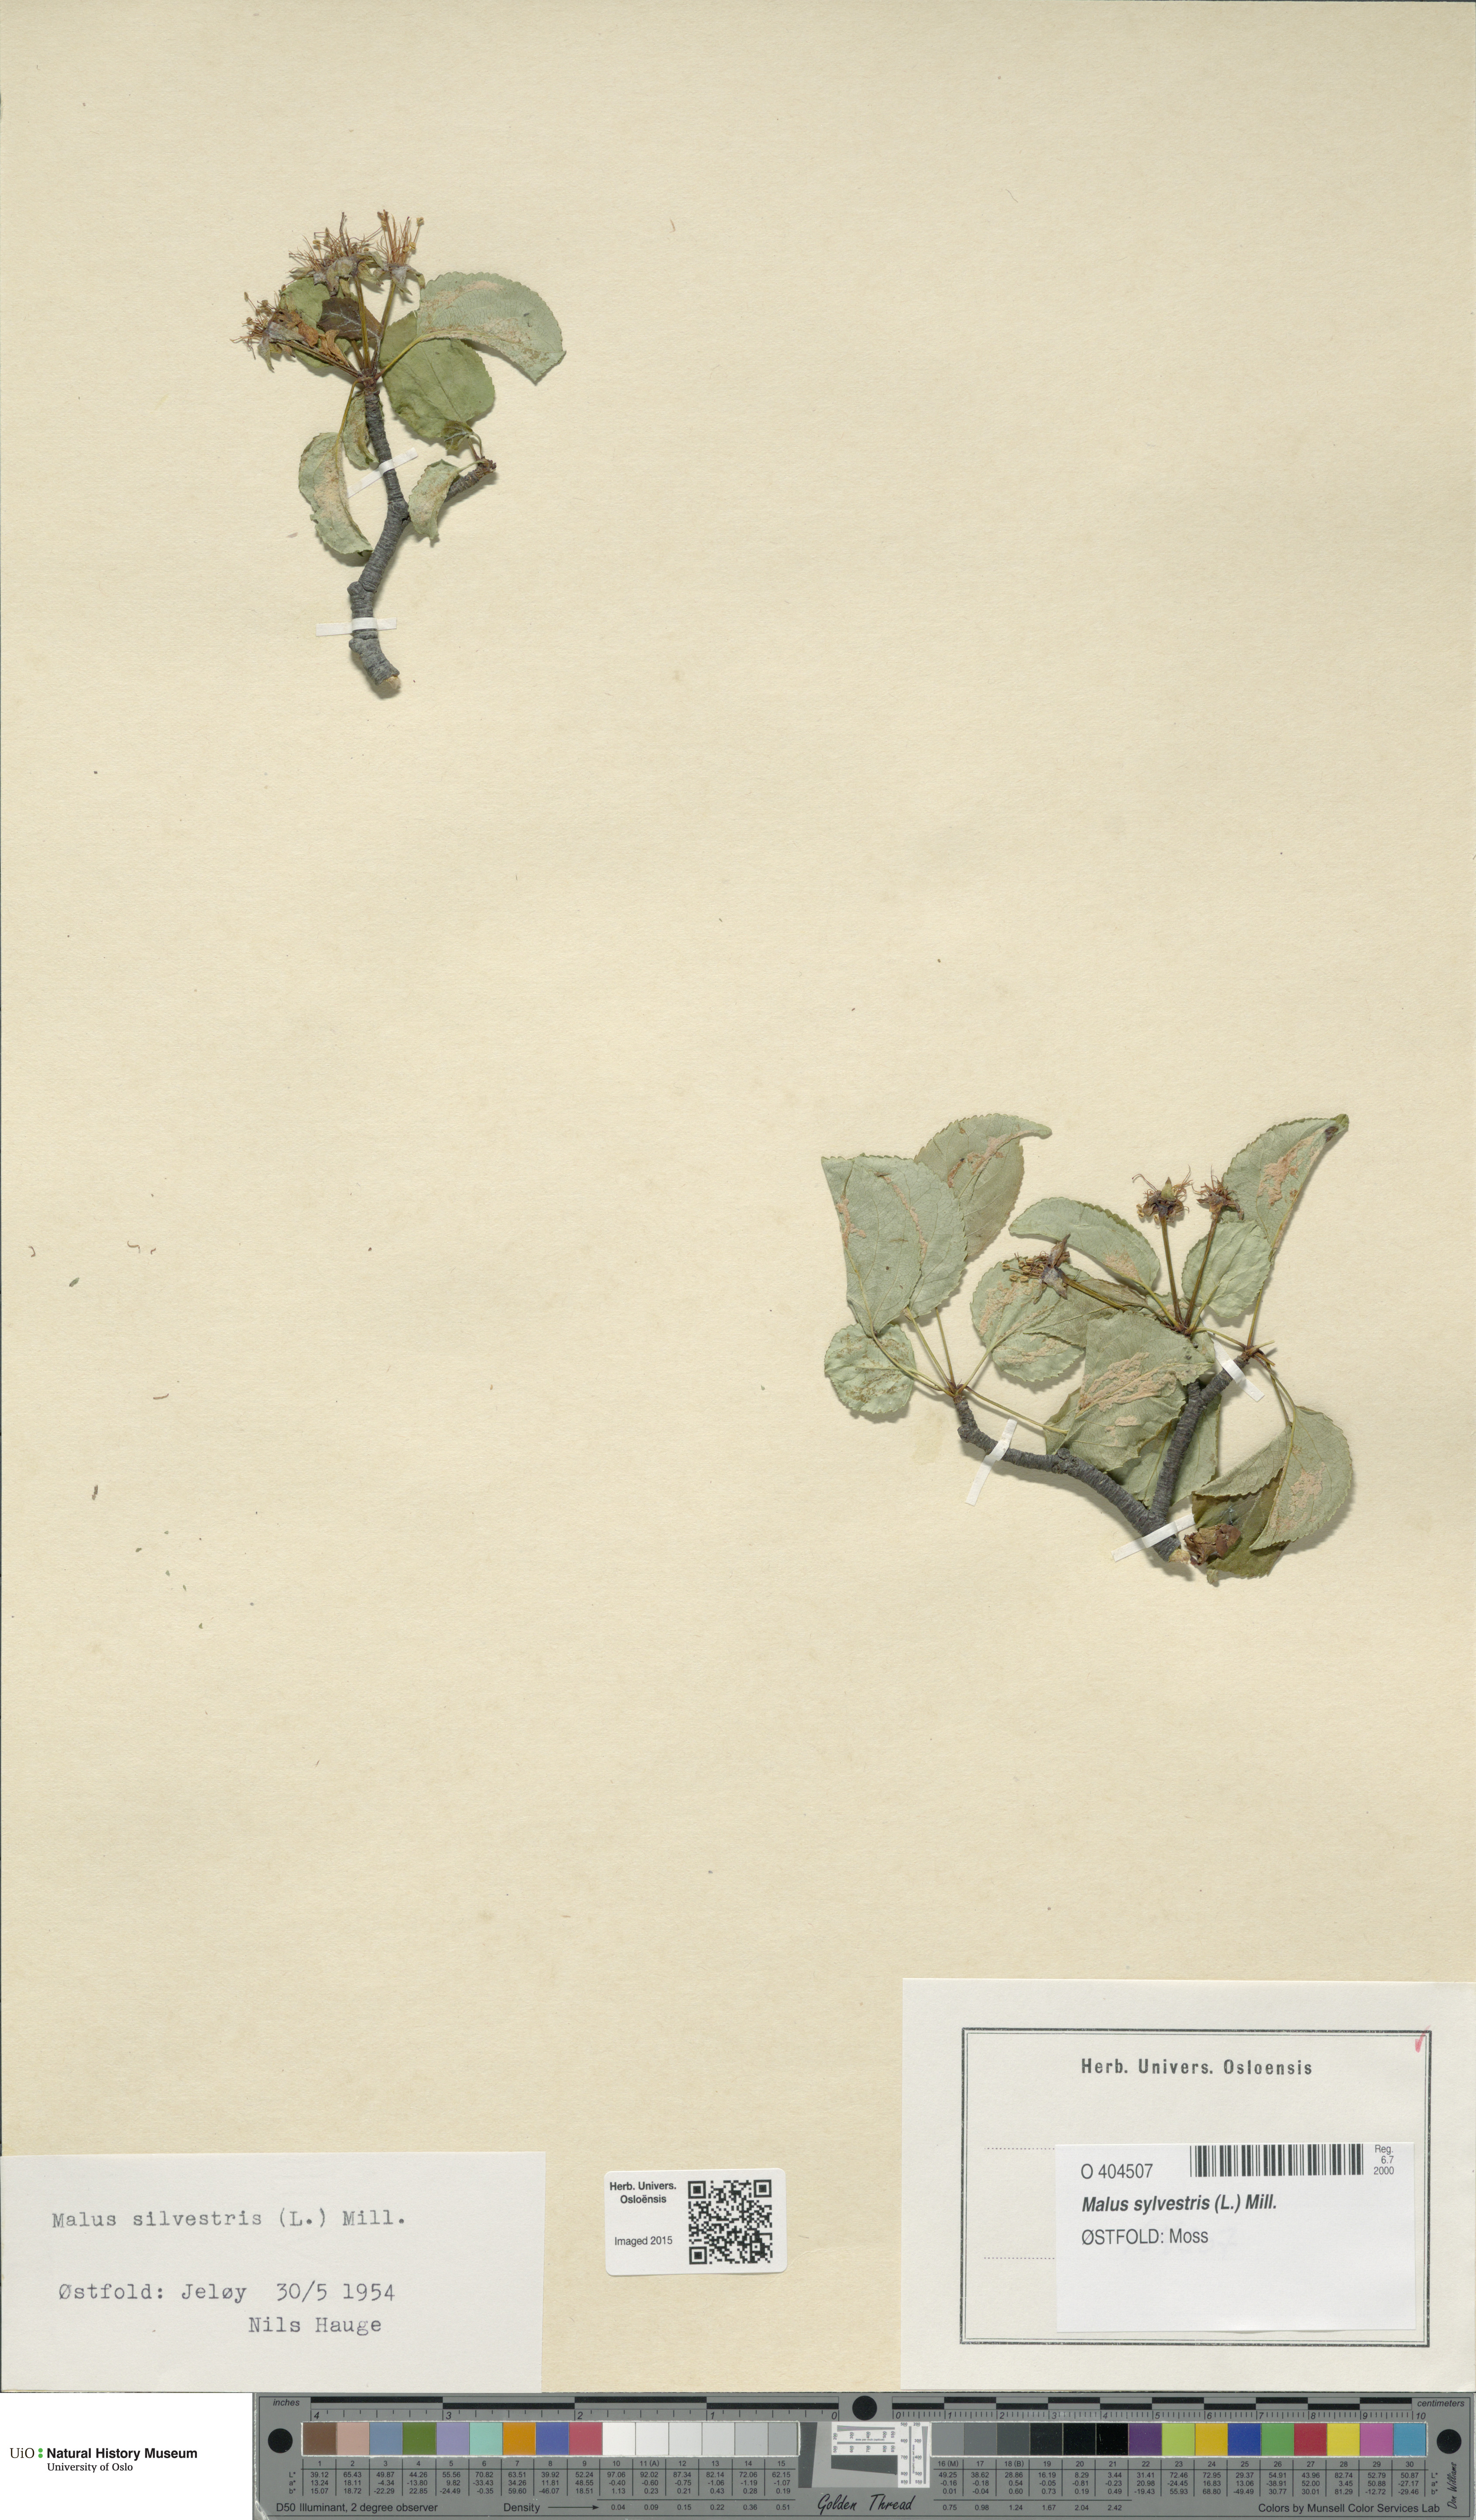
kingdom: Plantae
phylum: Tracheophyta
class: Magnoliopsida
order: Rosales
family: Rosaceae
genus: Malus
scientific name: Malus sylvestris
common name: Crab apple
